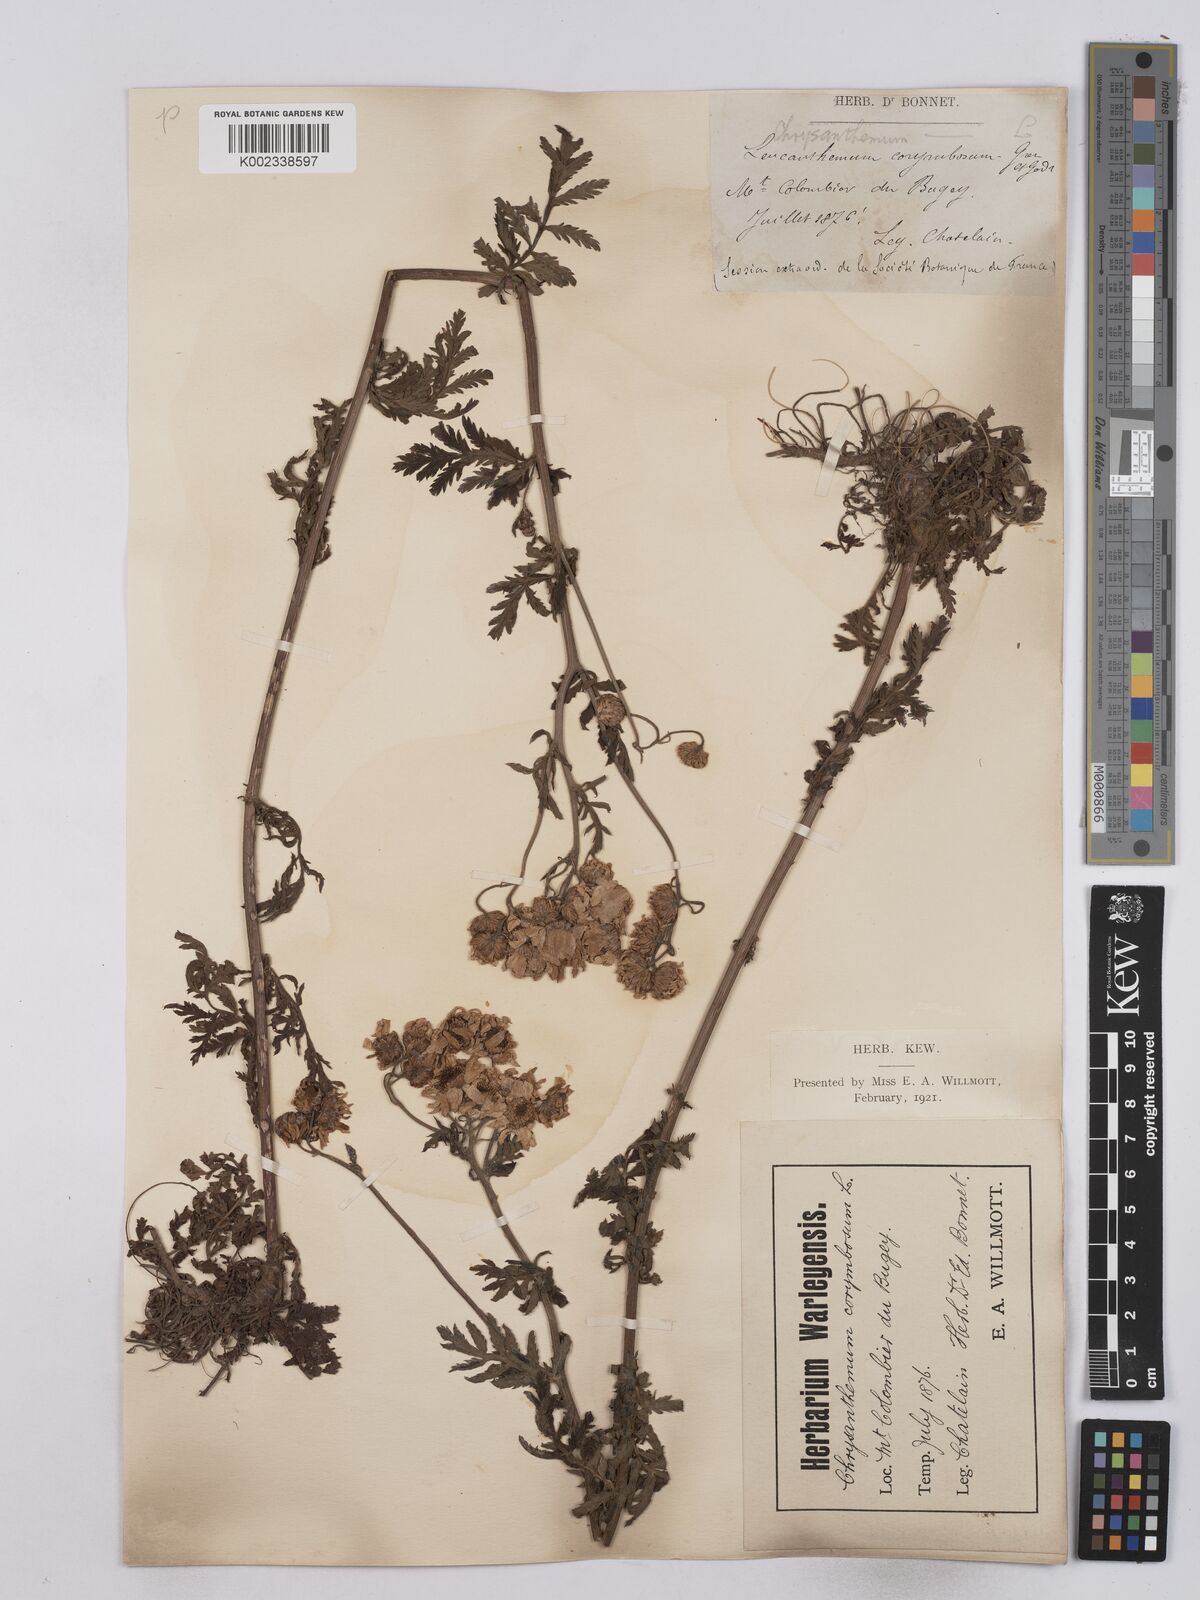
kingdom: Plantae
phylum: Tracheophyta
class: Magnoliopsida
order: Asterales
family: Asteraceae
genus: Tanacetum
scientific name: Tanacetum corymbosum
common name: Scentless feverfew
